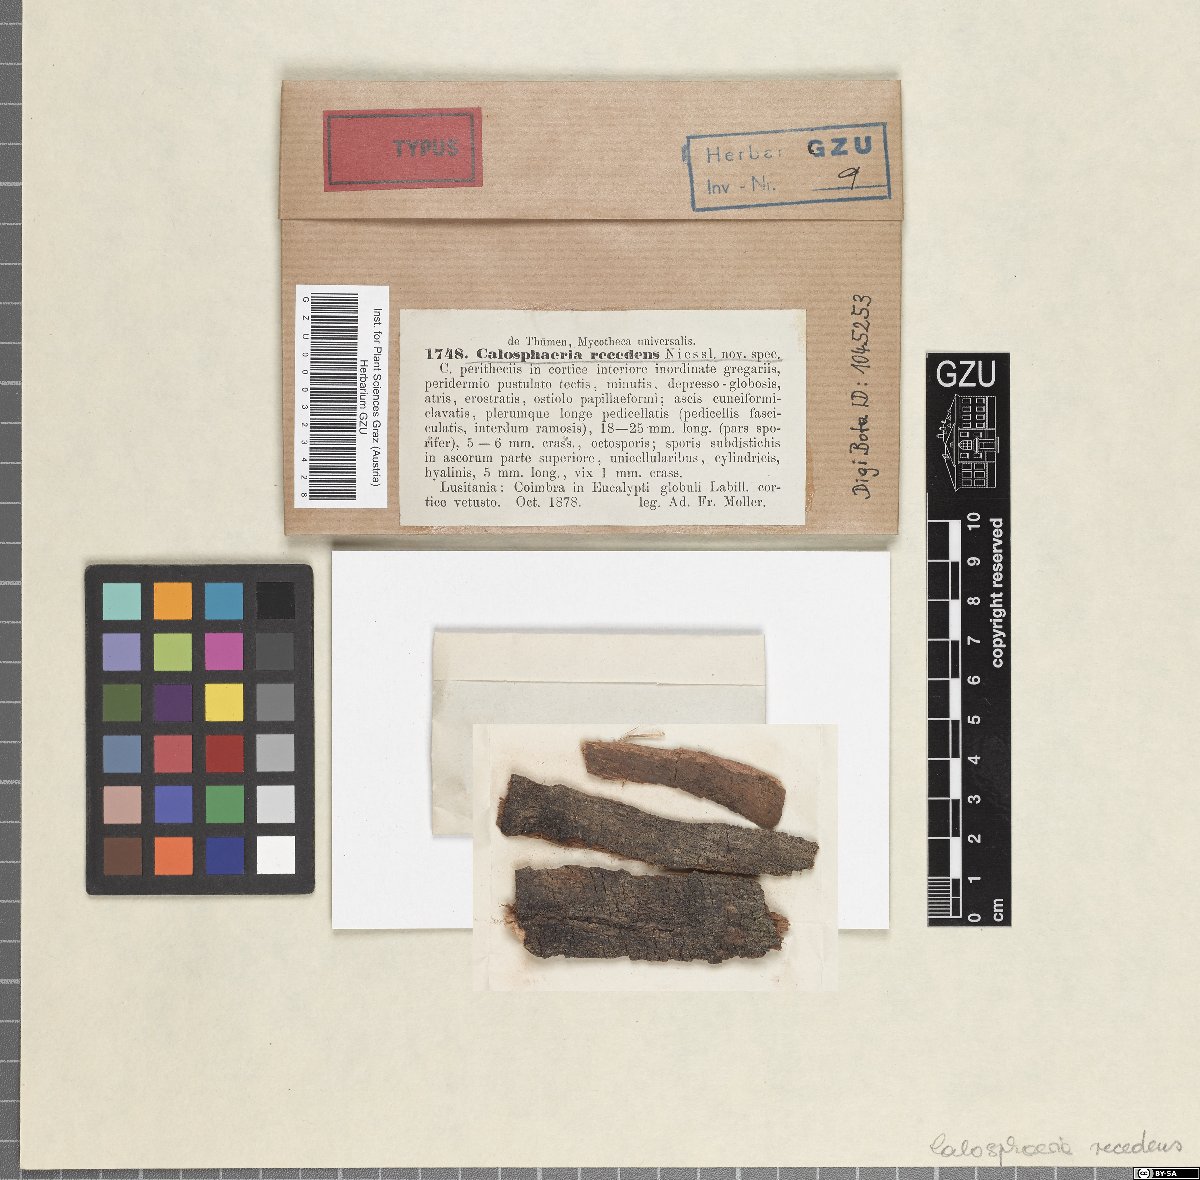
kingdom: Fungi
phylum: Ascomycota
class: Sordariomycetes
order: Calosphaeriales
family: Calosphaeriaceae
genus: Calosphaeria
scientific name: Calosphaeria
